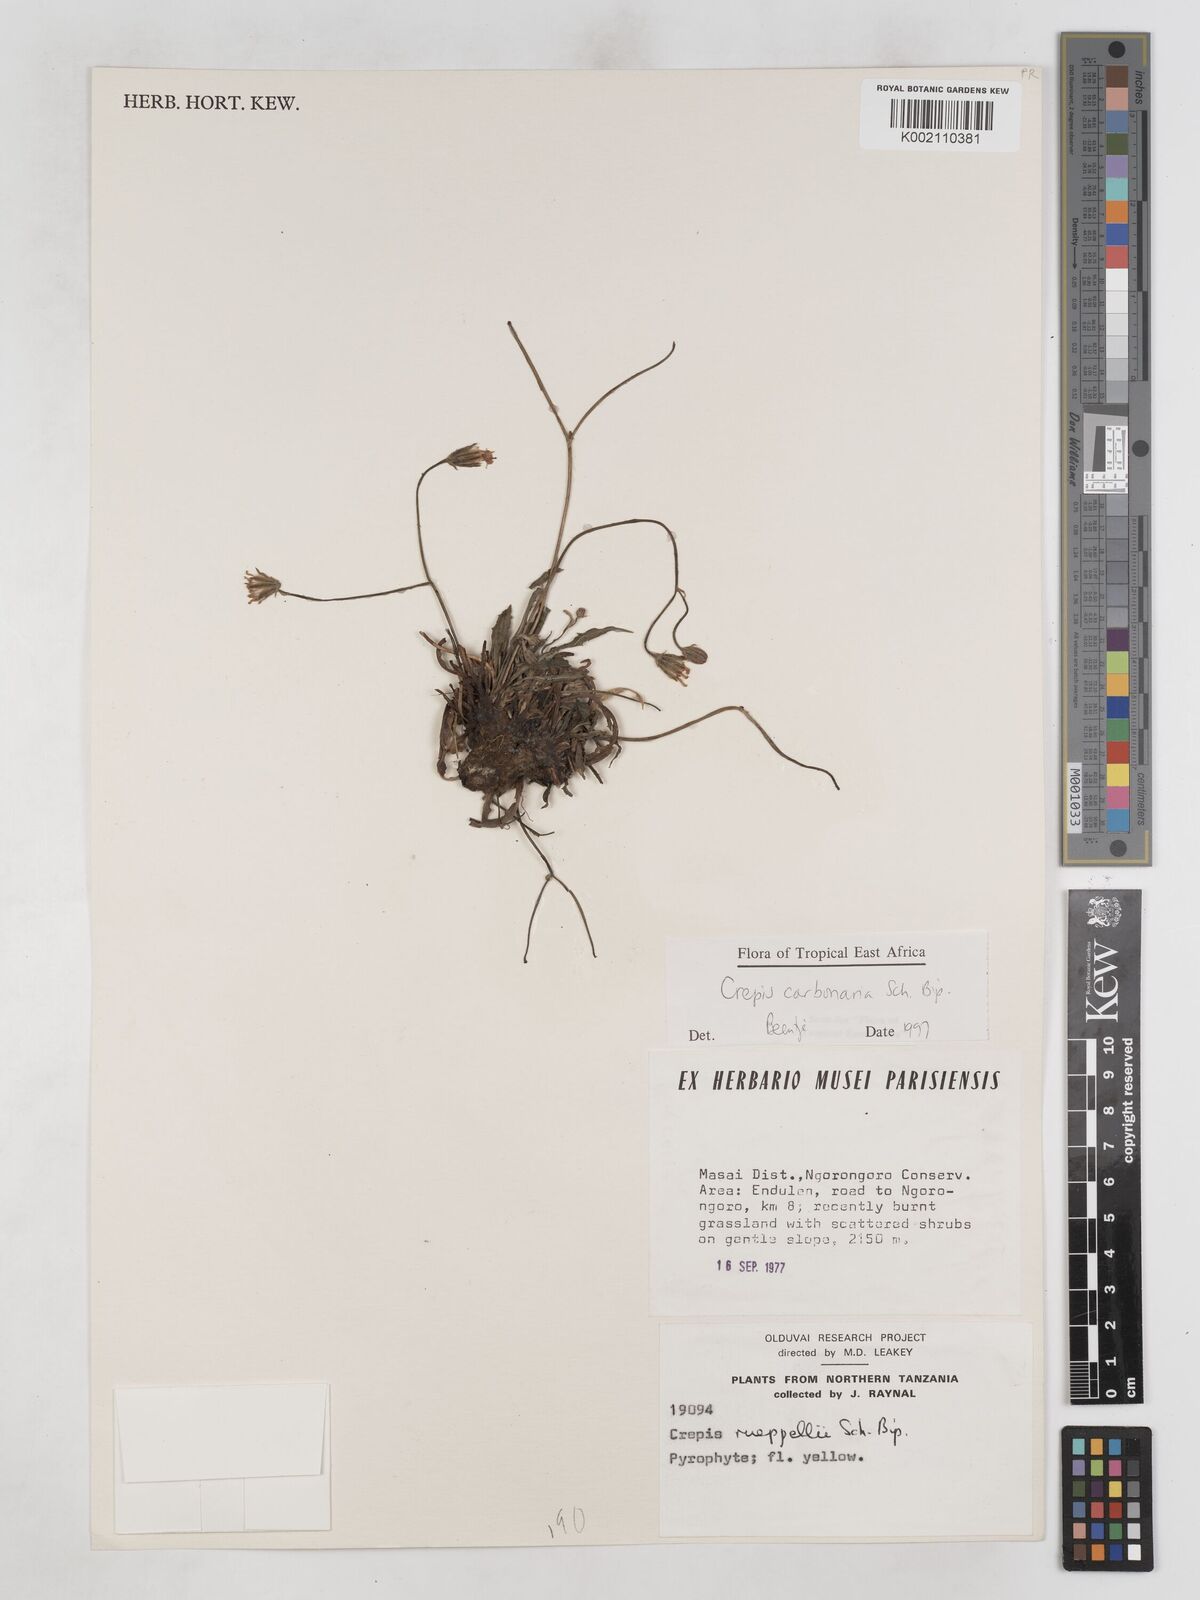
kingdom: Plantae
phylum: Tracheophyta
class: Magnoliopsida
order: Asterales
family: Asteraceae
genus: Crepis
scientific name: Crepis carbonaria
